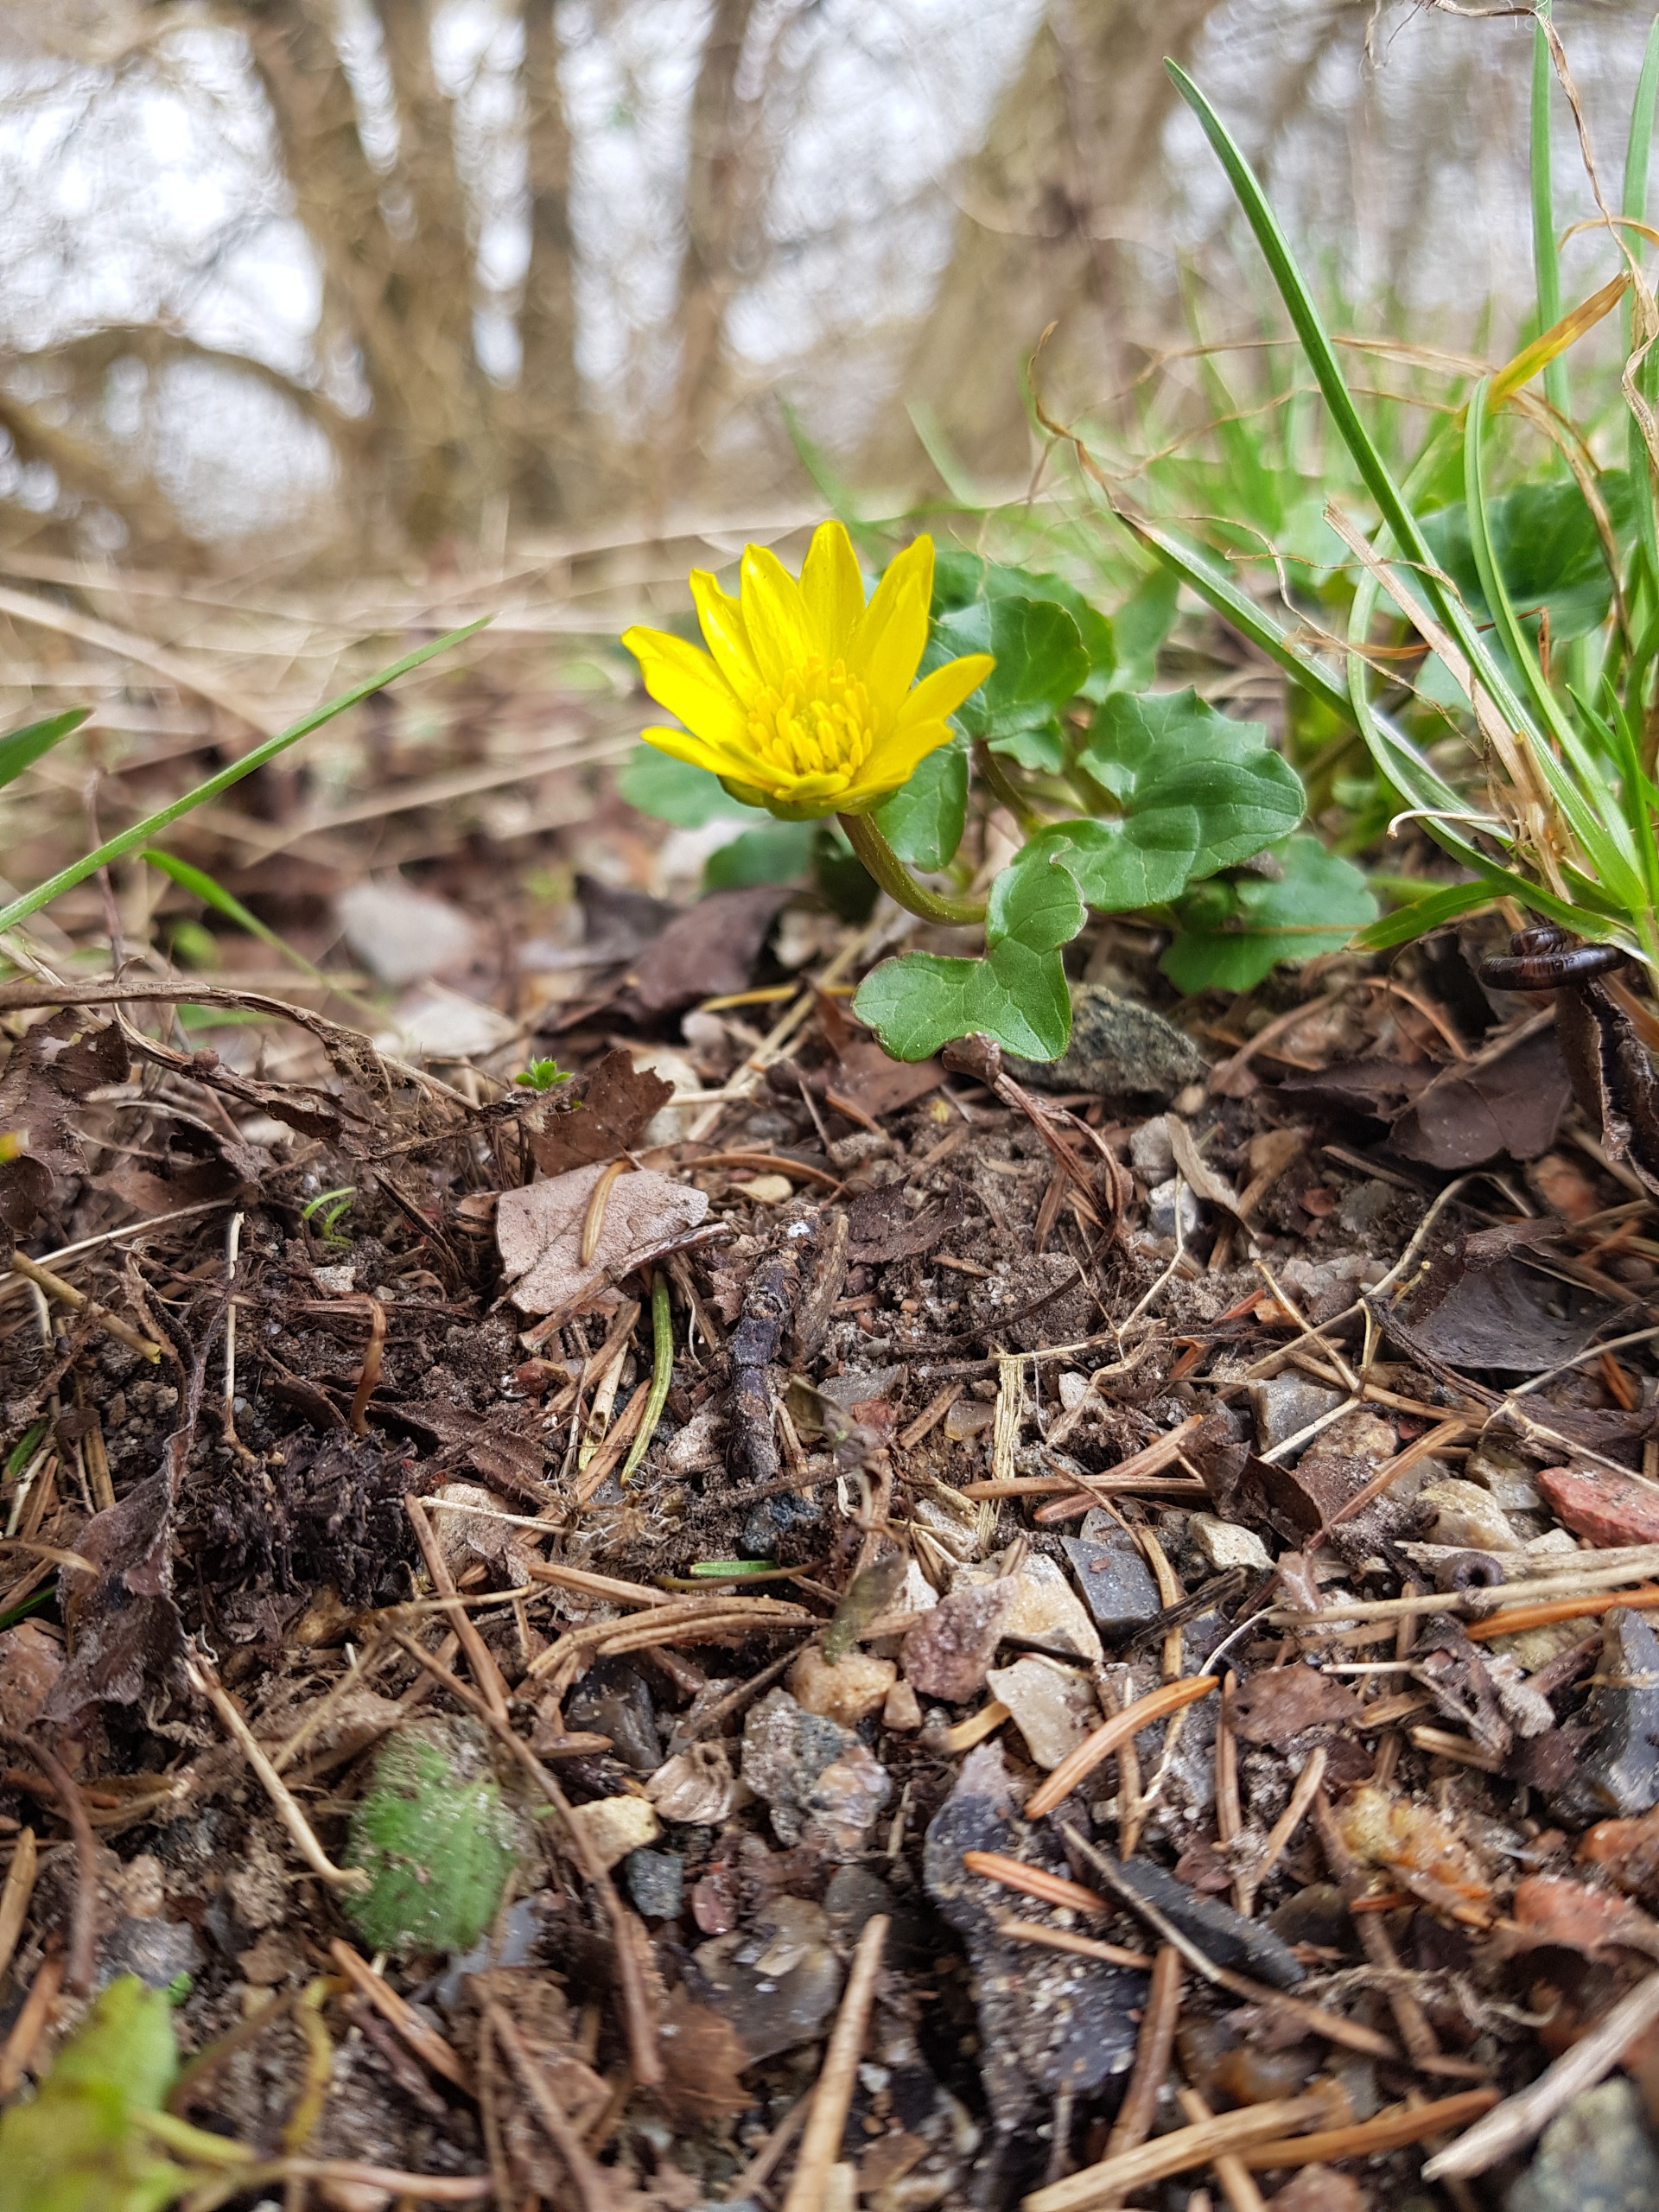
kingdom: Plantae
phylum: Tracheophyta
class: Magnoliopsida
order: Ranunculales
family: Ranunculaceae
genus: Ficaria
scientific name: Ficaria verna
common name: Vorterod
